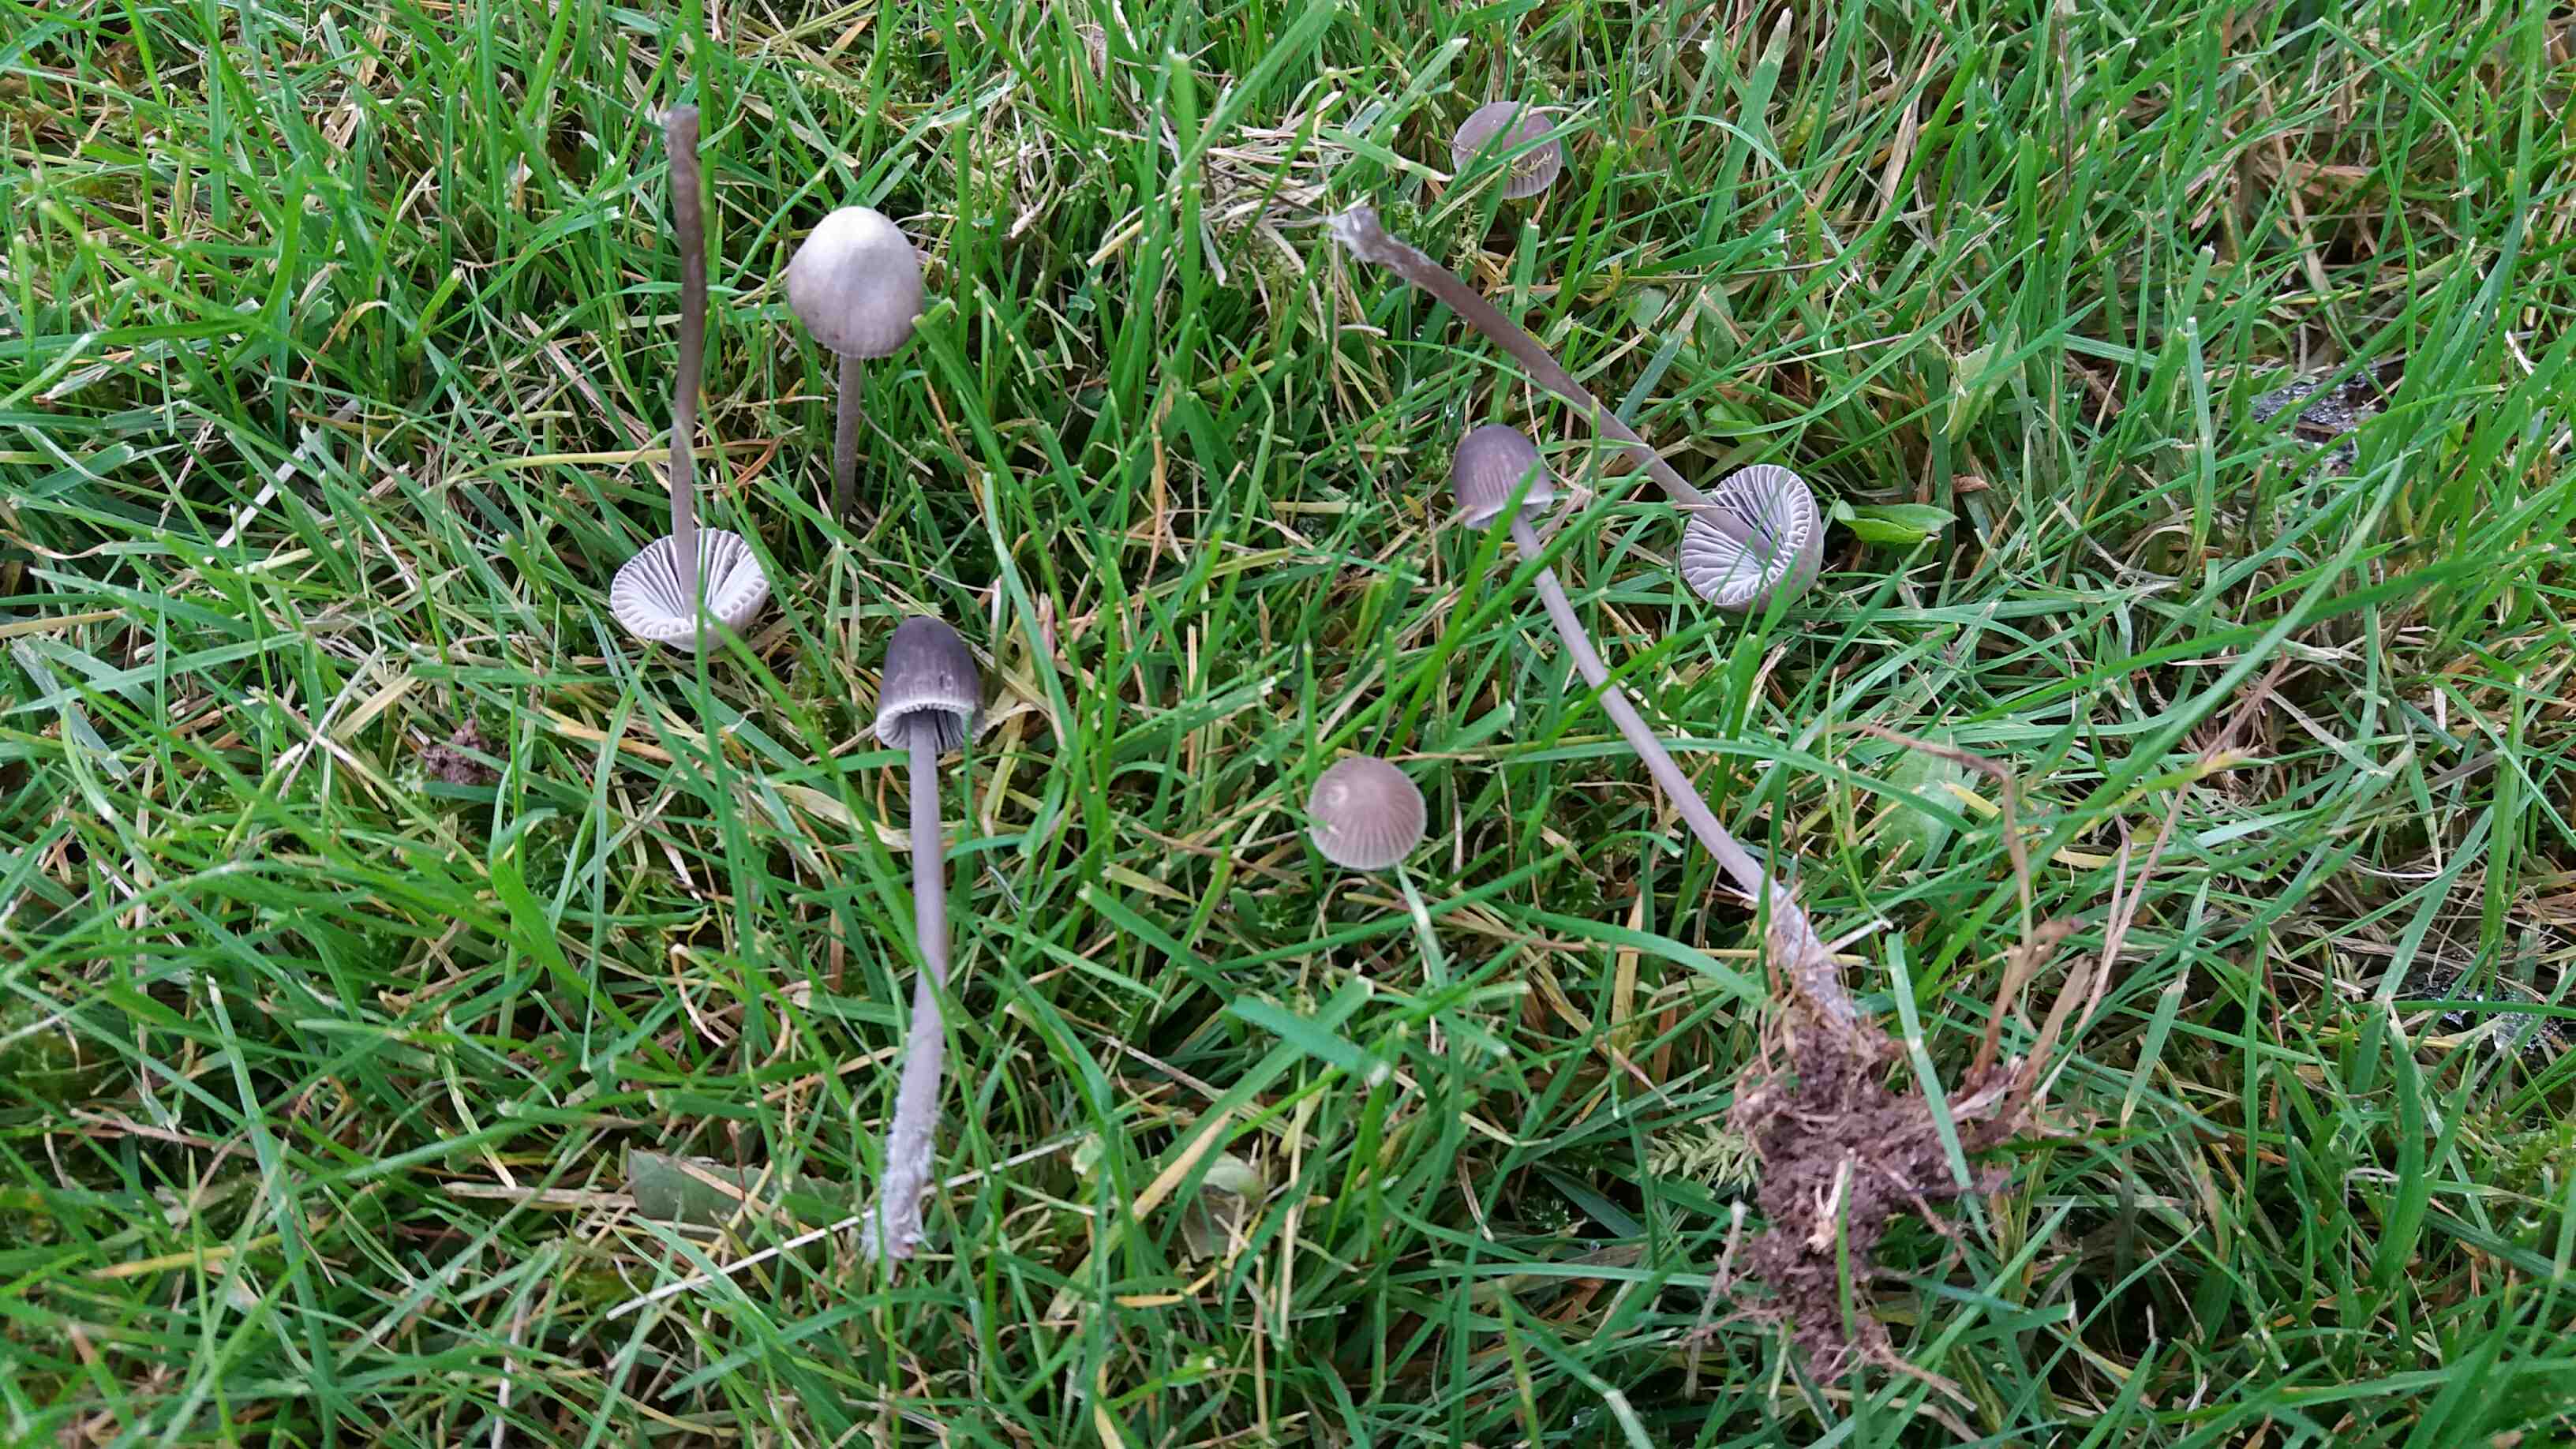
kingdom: Fungi
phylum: Basidiomycota
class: Agaricomycetes
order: Agaricales
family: Mycenaceae
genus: Mycena
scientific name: Mycena aetites
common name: plæne-huesvamp
